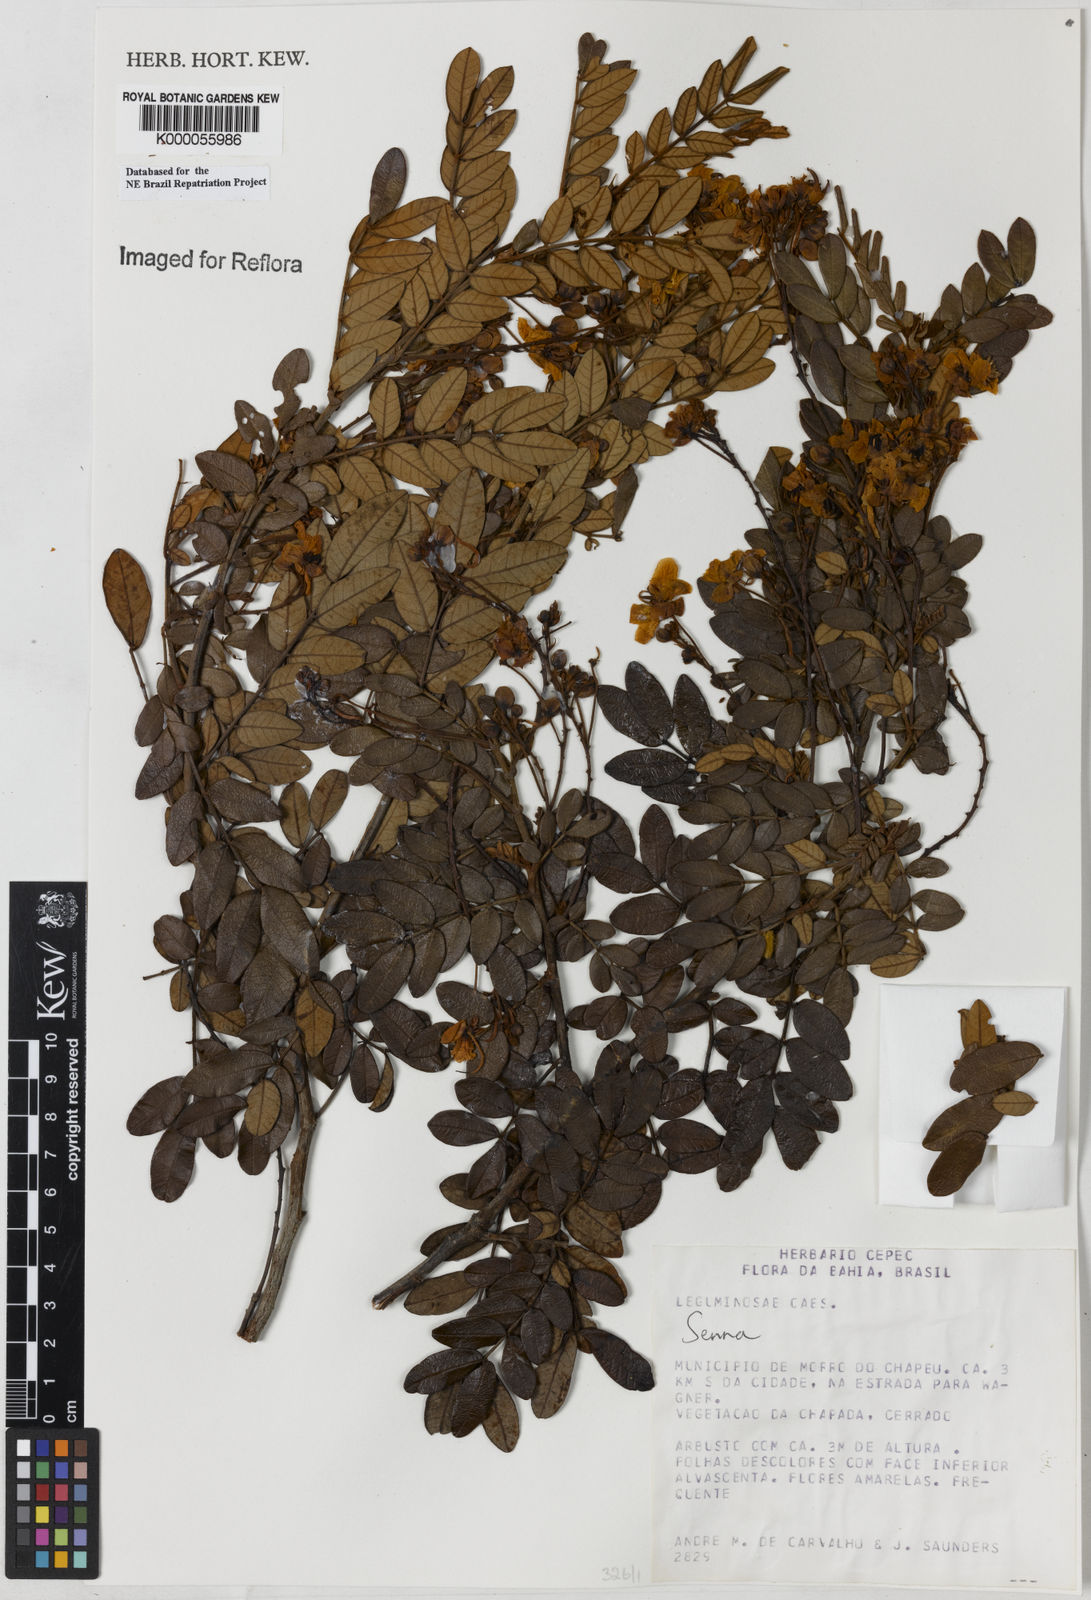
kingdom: Plantae
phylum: Tracheophyta
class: Magnoliopsida
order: Fabales
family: Fabaceae
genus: Senna
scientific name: Senna
